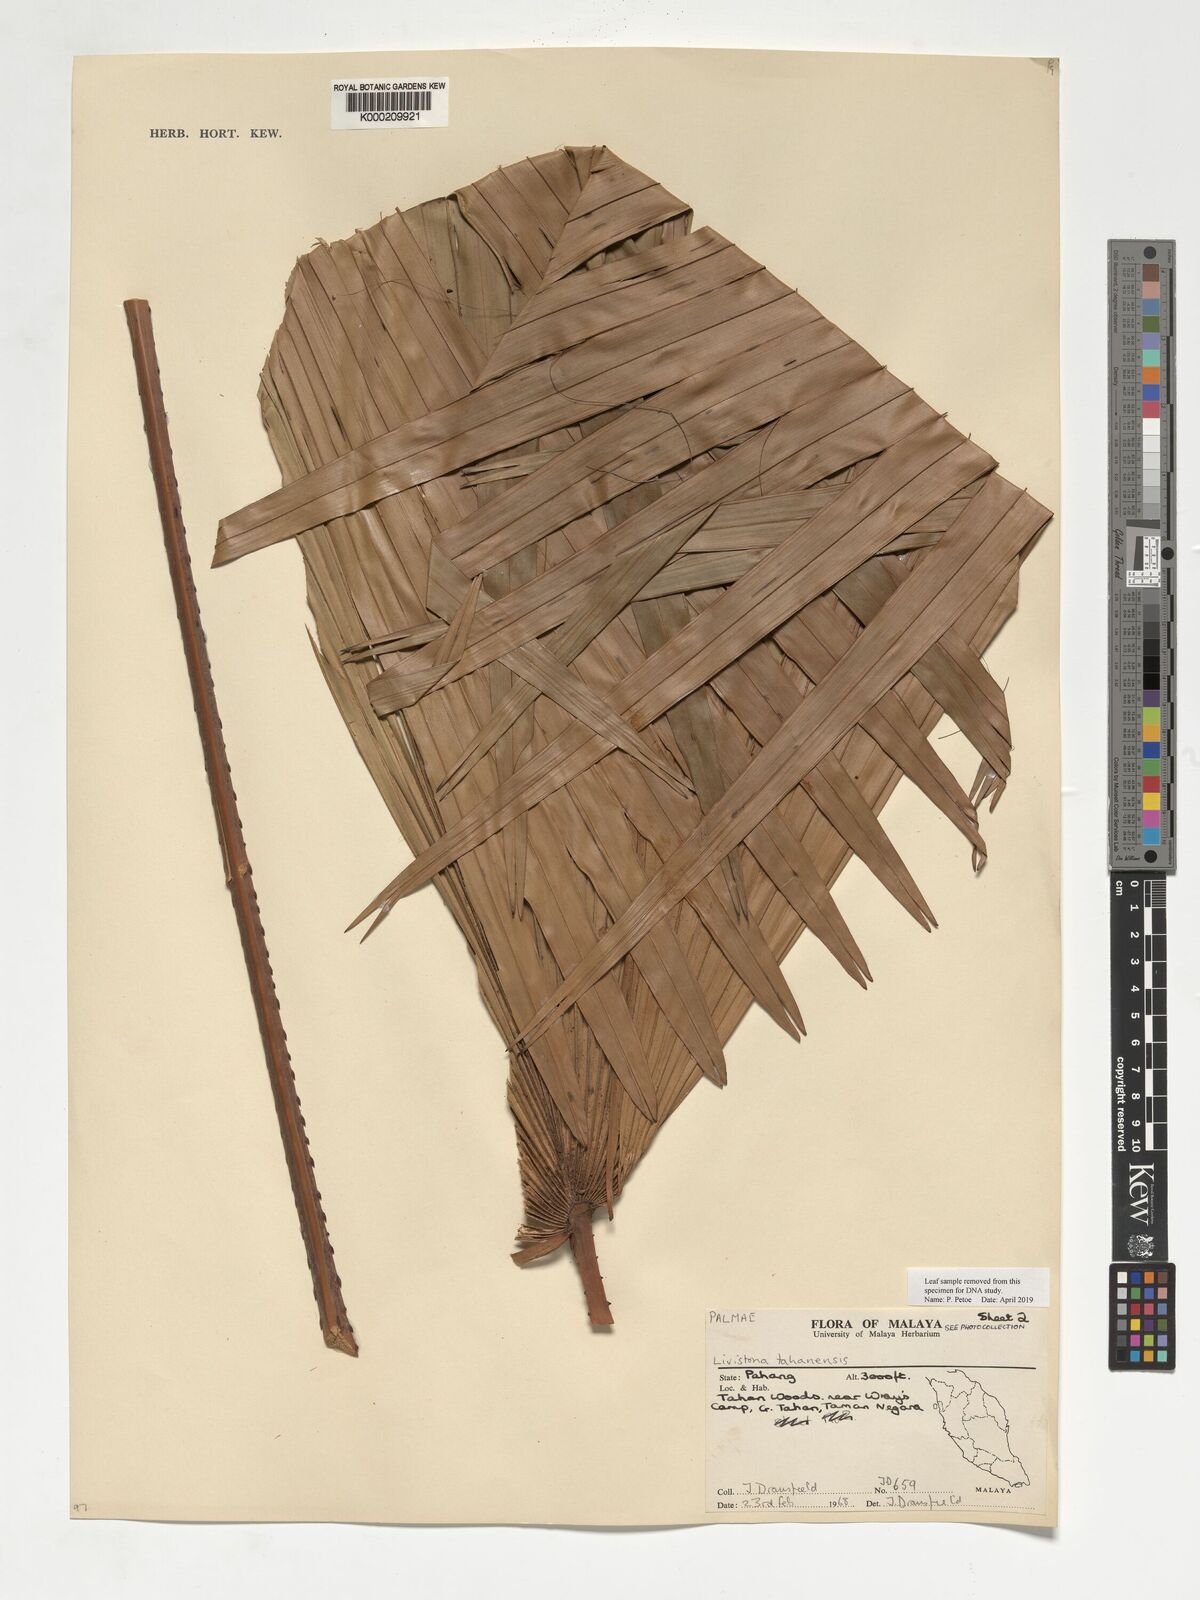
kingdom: Plantae
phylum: Tracheophyta
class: Liliopsida
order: Arecales
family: Arecaceae
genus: Livistona
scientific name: Livistona tahanensis
